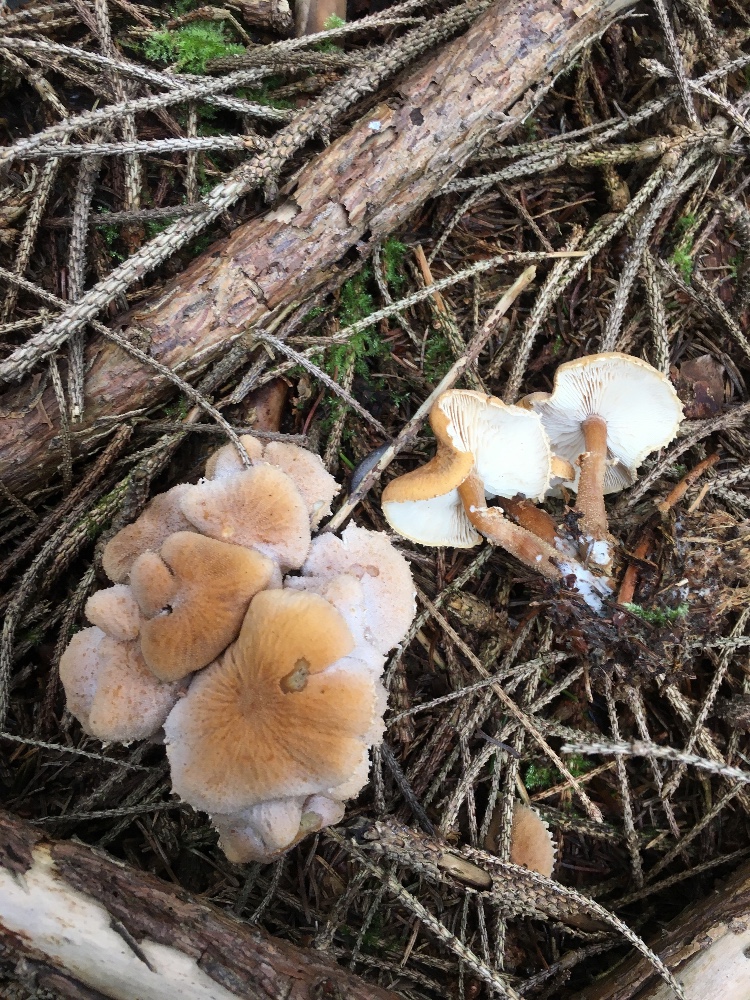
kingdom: Fungi
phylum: Basidiomycota
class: Agaricomycetes
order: Agaricales
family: Tricholomataceae
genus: Cystoderma
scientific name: Cystoderma amianthinum
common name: okkergul grynhat
